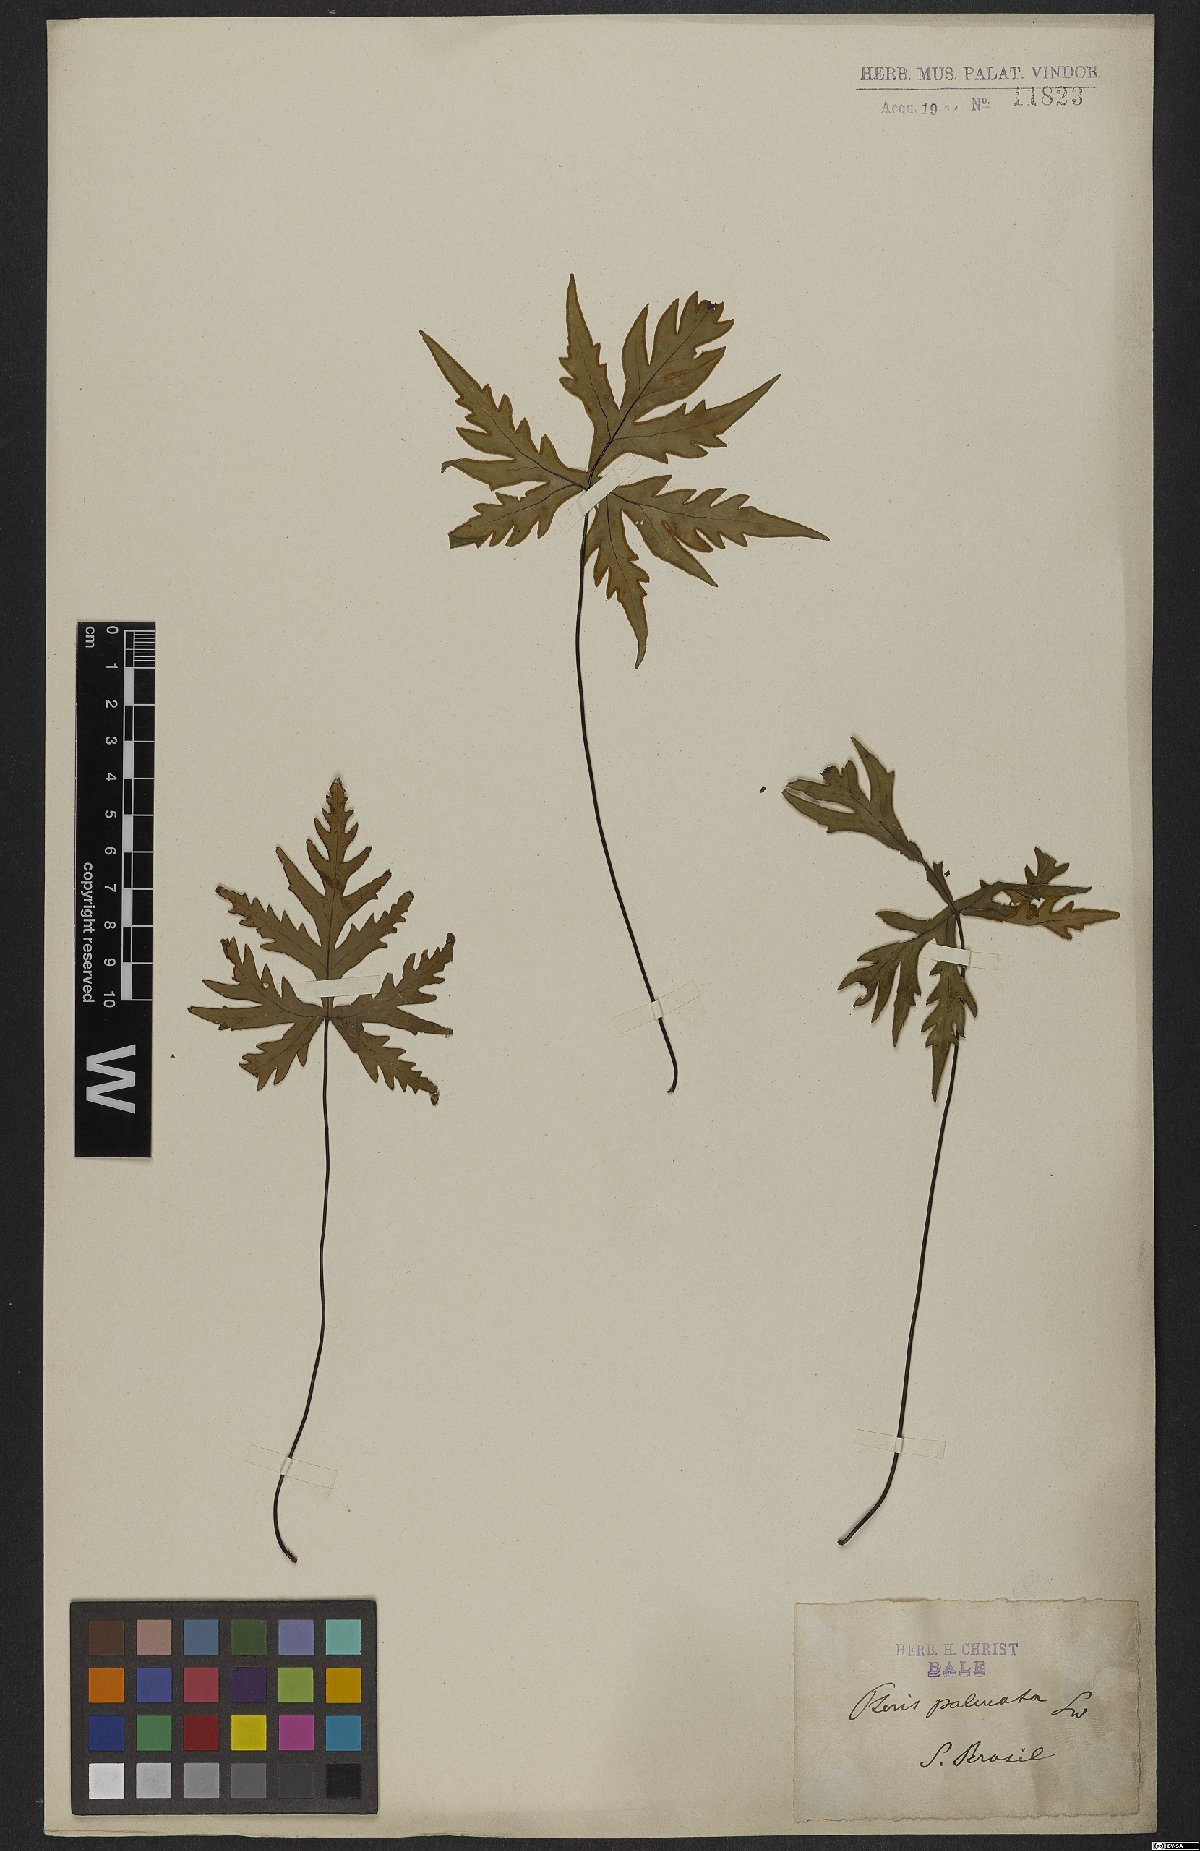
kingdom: Plantae
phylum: Tracheophyta
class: Polypodiopsida
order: Polypodiales
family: Pteridaceae
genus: Doryopteris
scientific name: Doryopteris pedata
